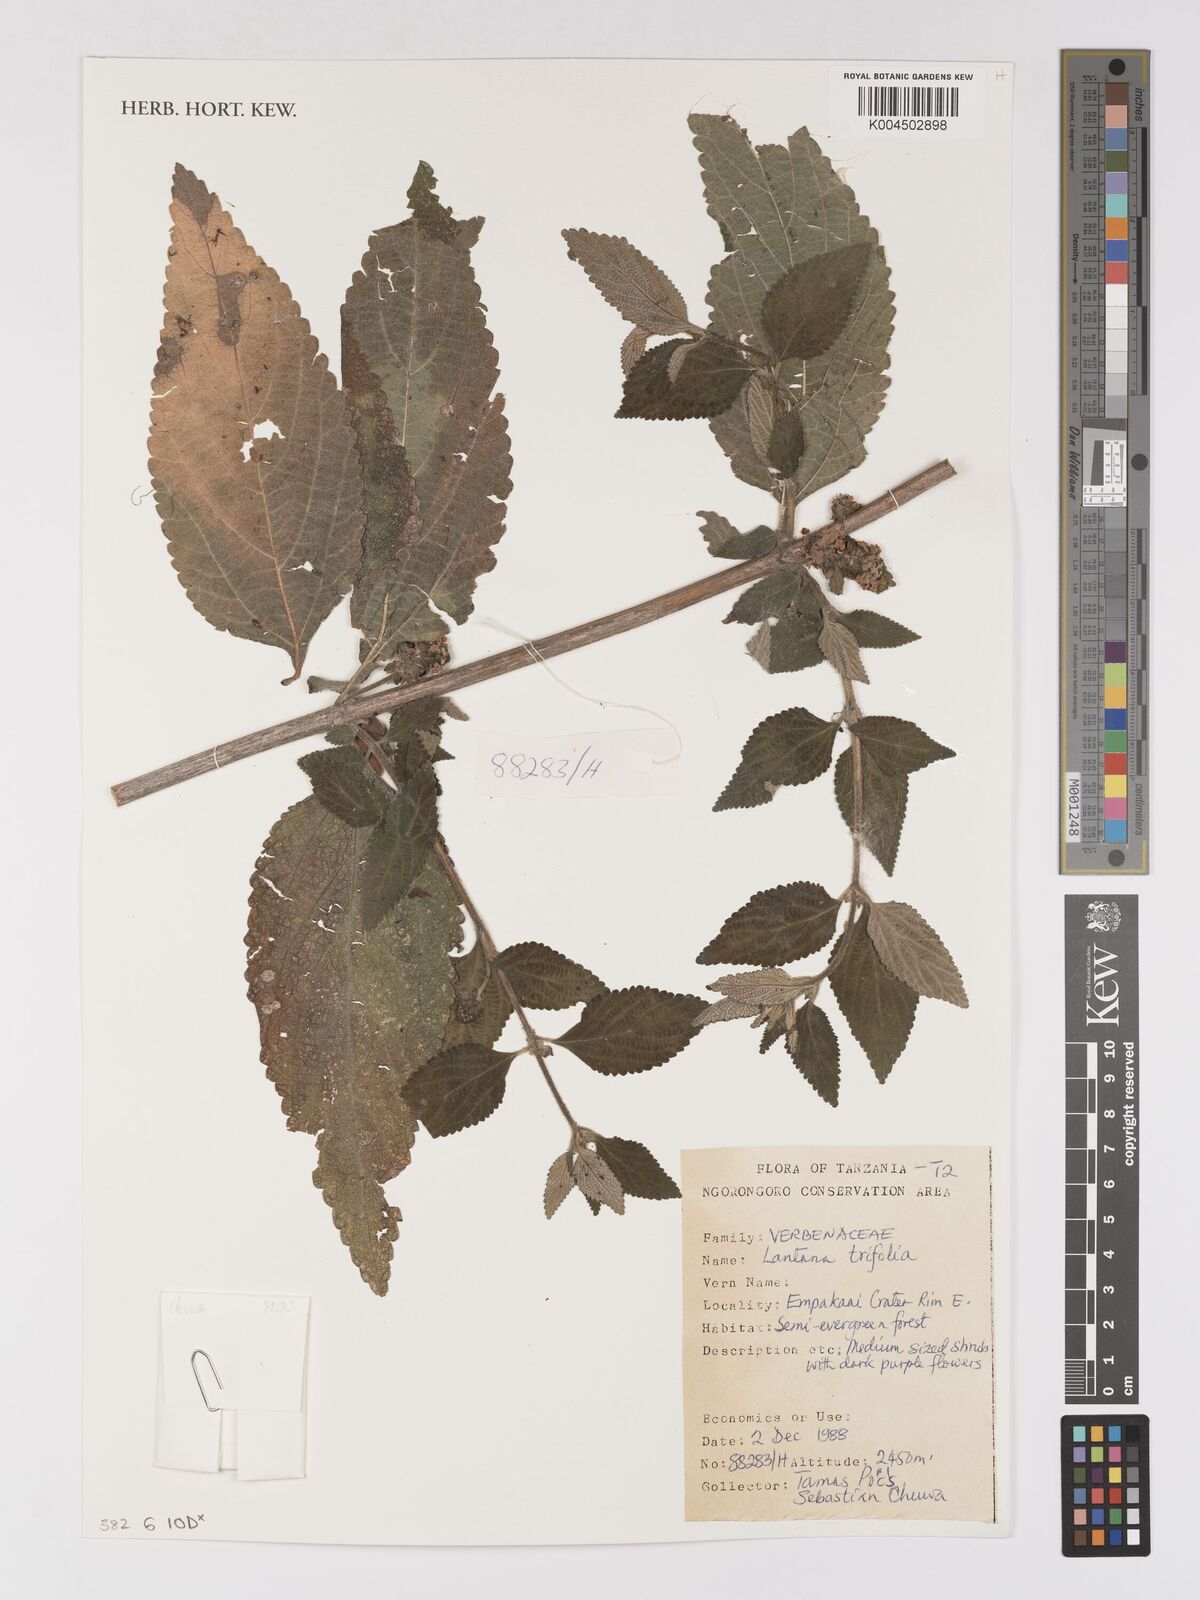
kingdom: Plantae
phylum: Tracheophyta
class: Magnoliopsida
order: Lamiales
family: Verbenaceae
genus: Lantana
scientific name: Lantana trifolia
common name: Sweet-sage
